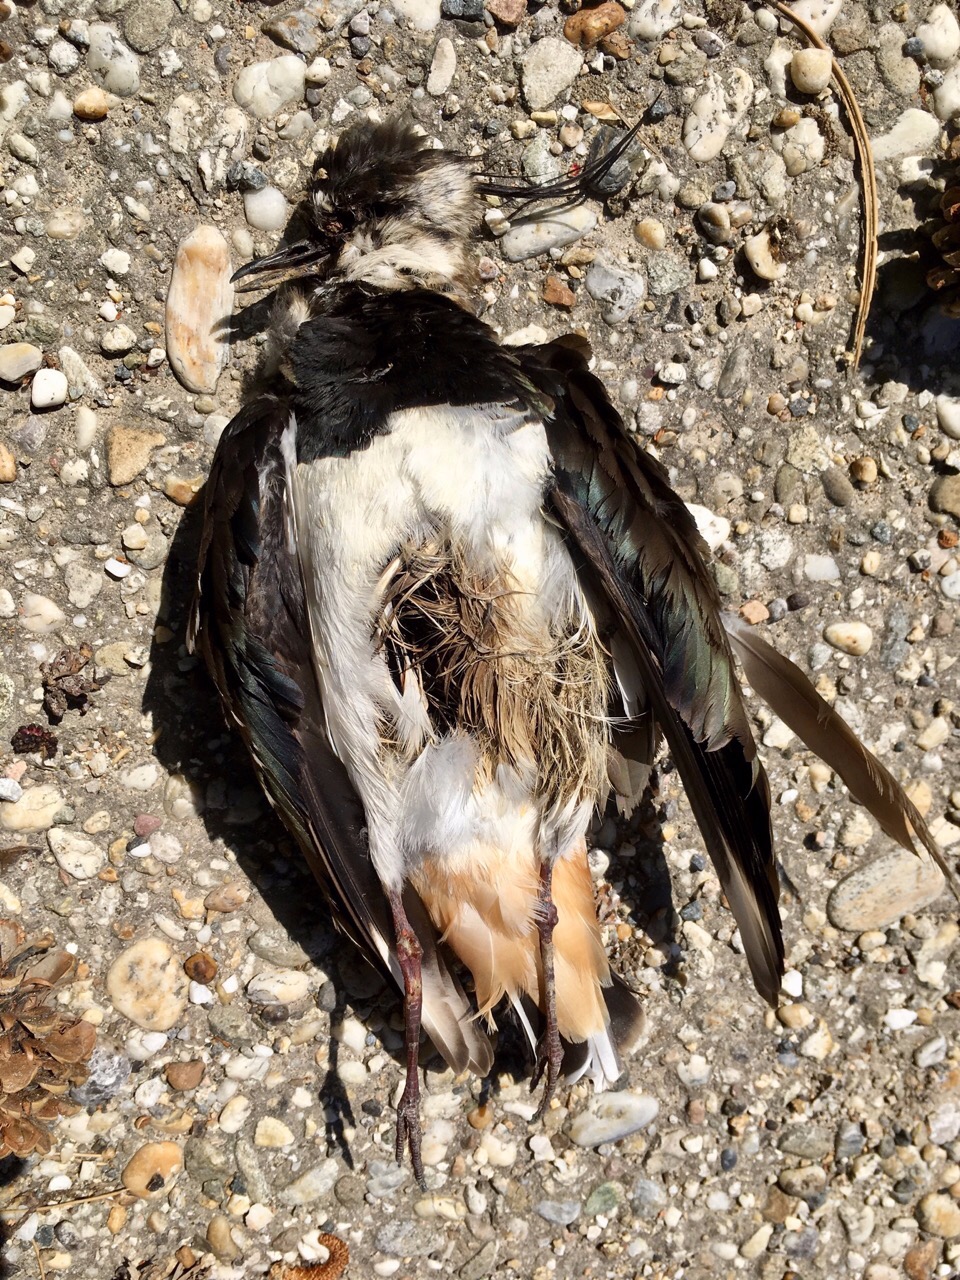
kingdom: Animalia
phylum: Chordata
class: Aves
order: Charadriiformes
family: Charadriidae
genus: Vanellus
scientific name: Vanellus vanellus
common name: Northern lapwing
